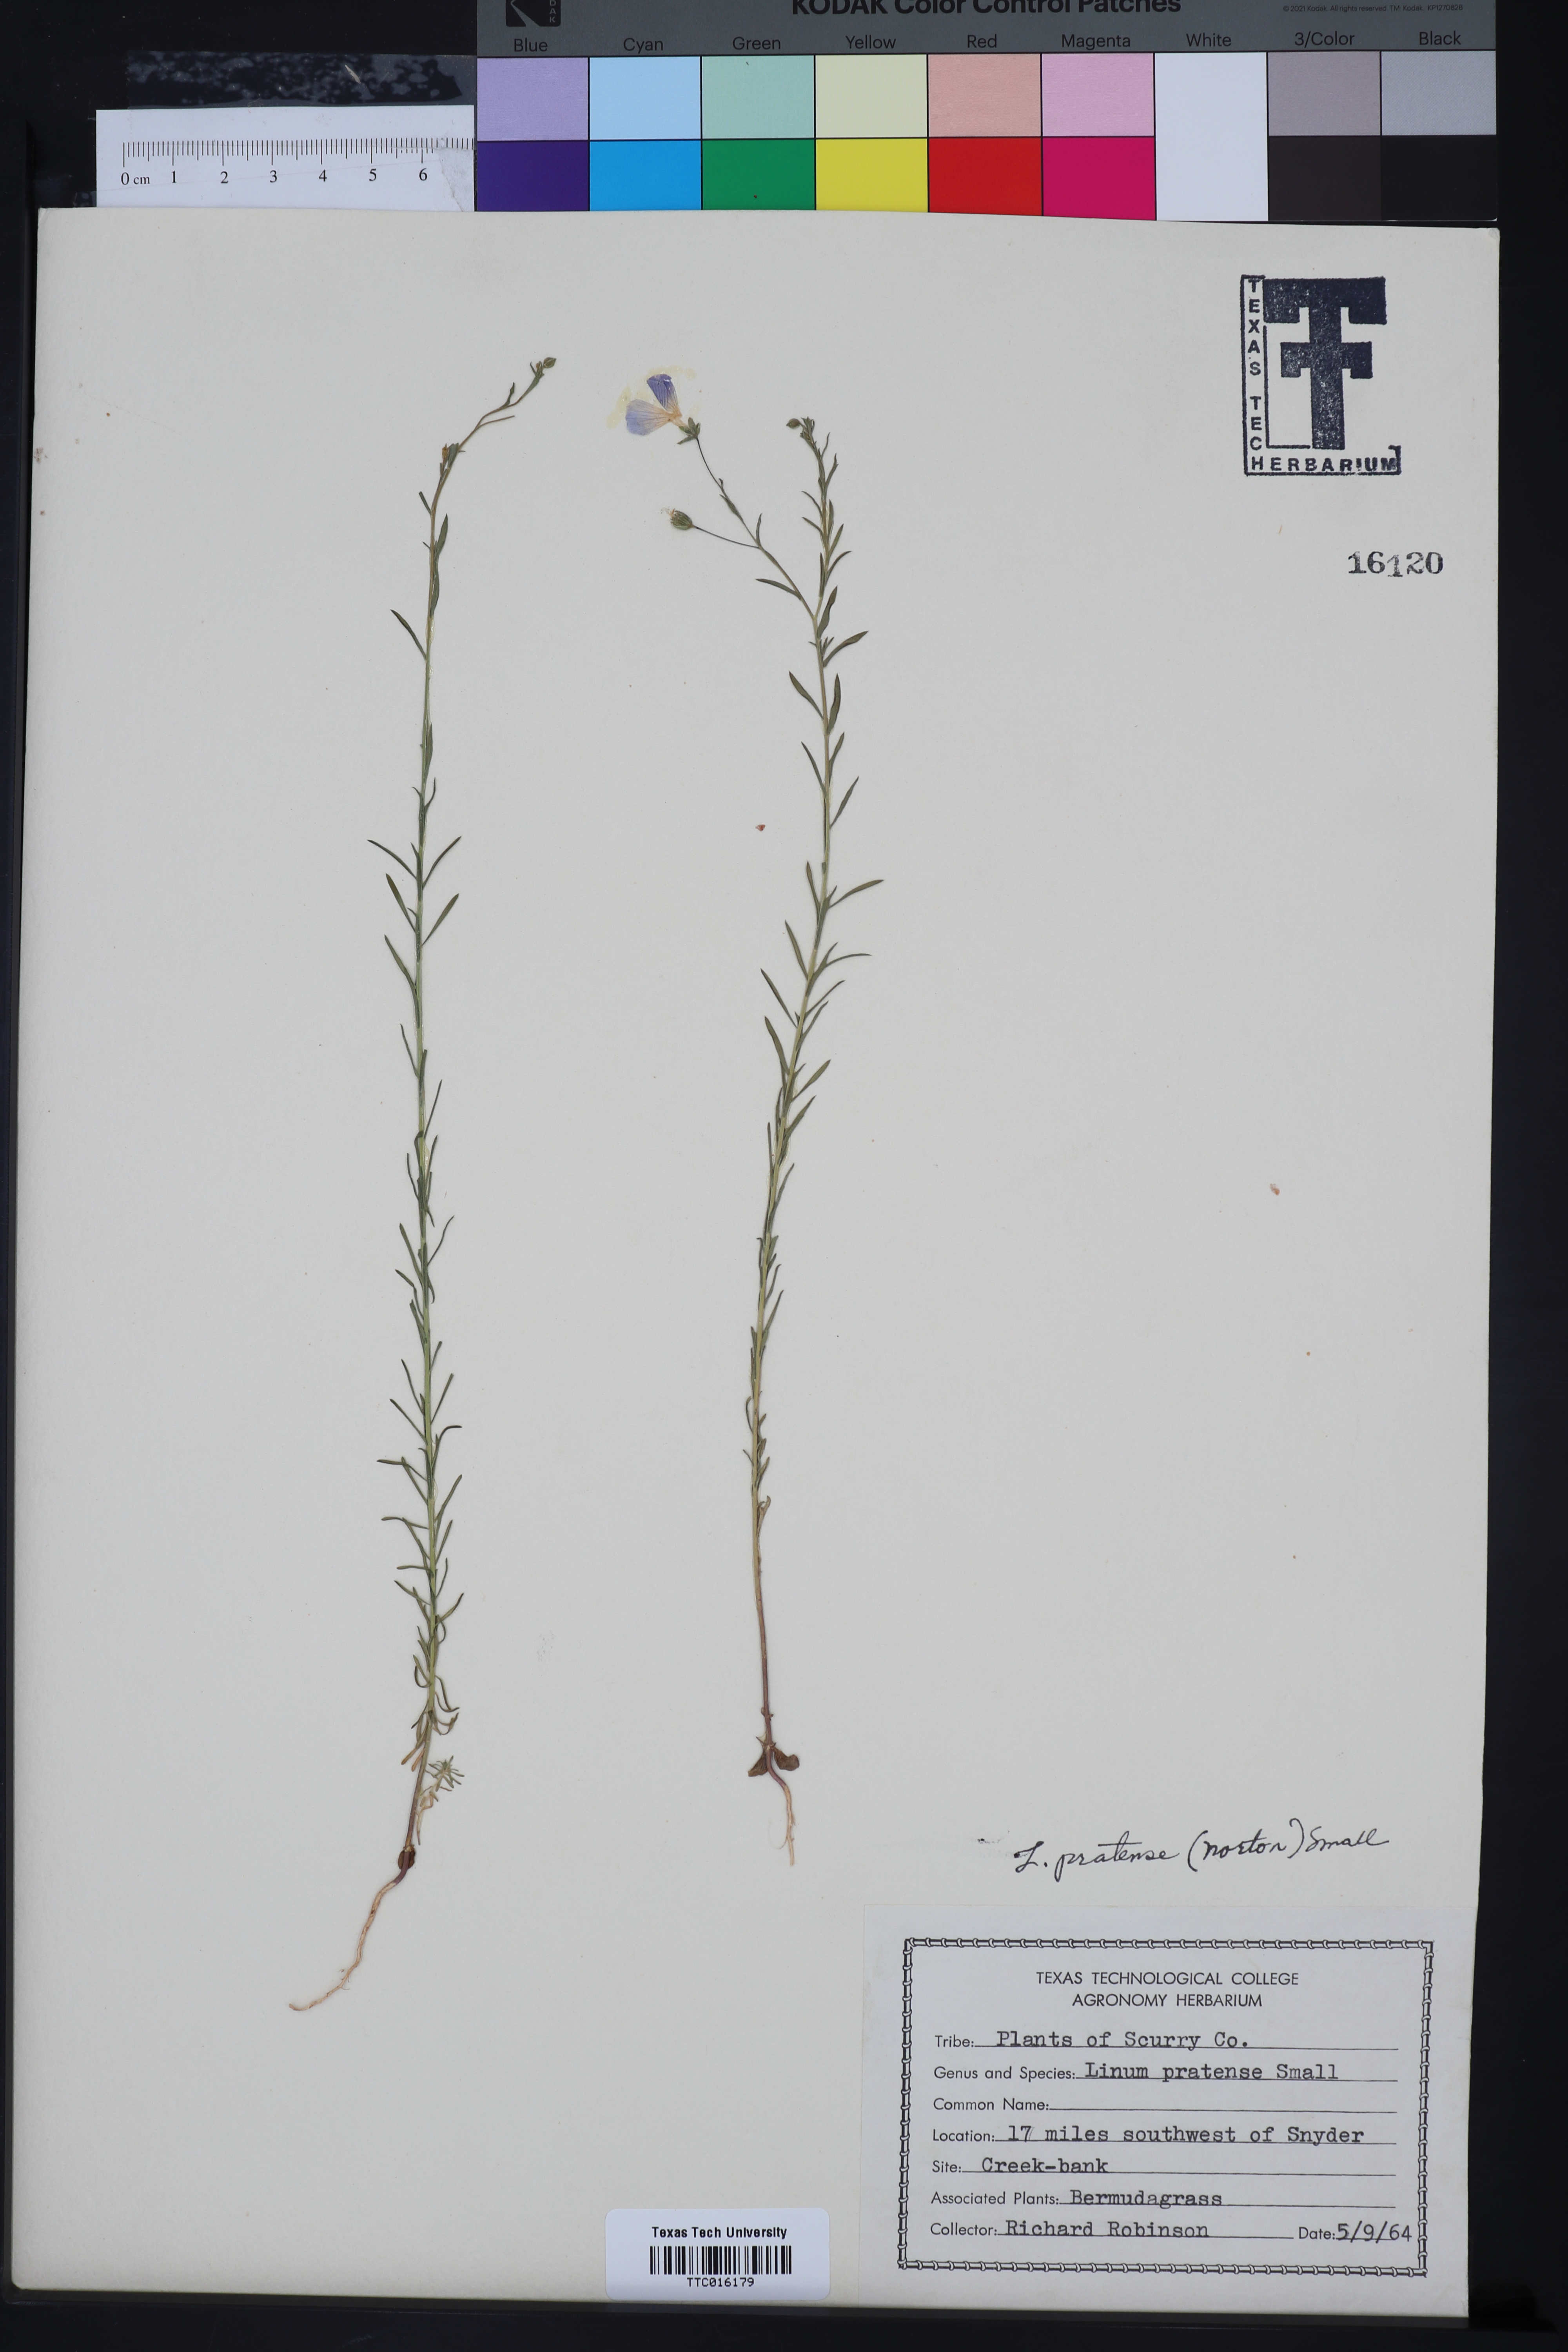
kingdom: Plantae
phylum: Tracheophyta
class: Magnoliopsida
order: Malpighiales
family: Linaceae
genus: Linum
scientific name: Linum pratense
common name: Norton's flax
